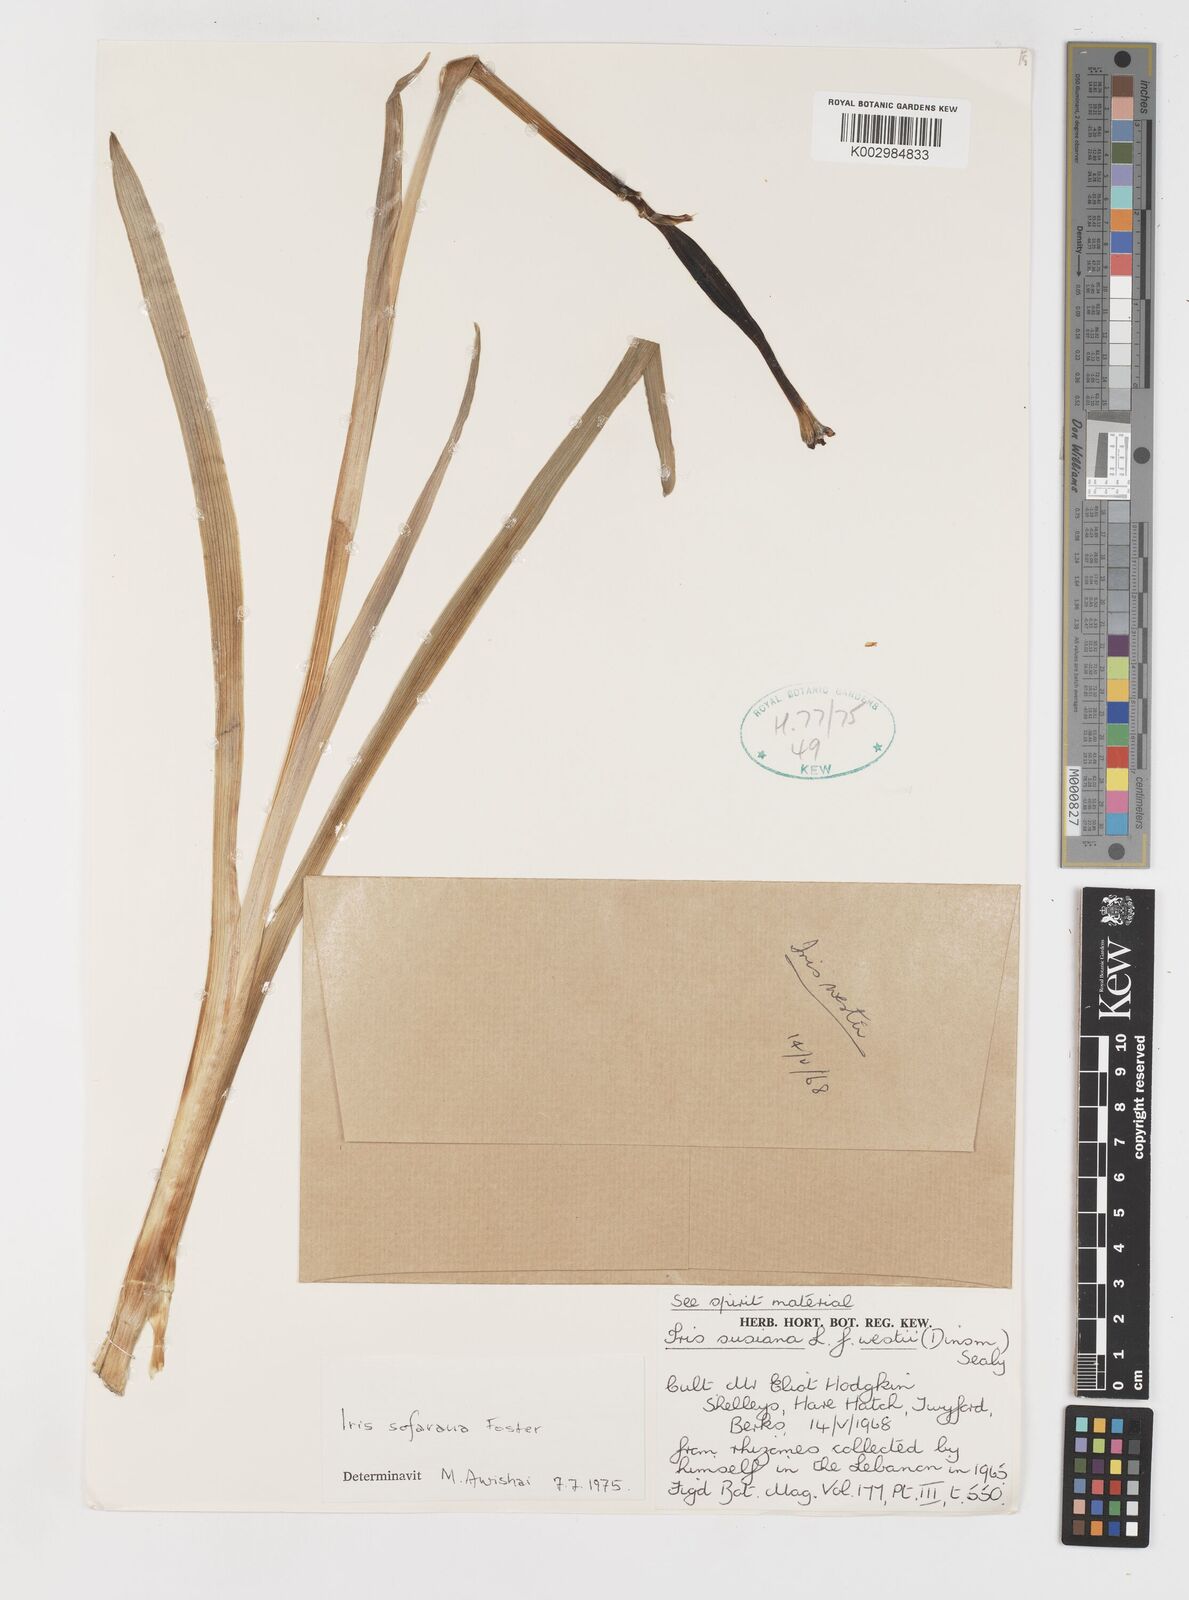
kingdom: Plantae
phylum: Tracheophyta
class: Liliopsida
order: Asparagales
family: Iridaceae
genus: Iris
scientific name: Iris susiana
